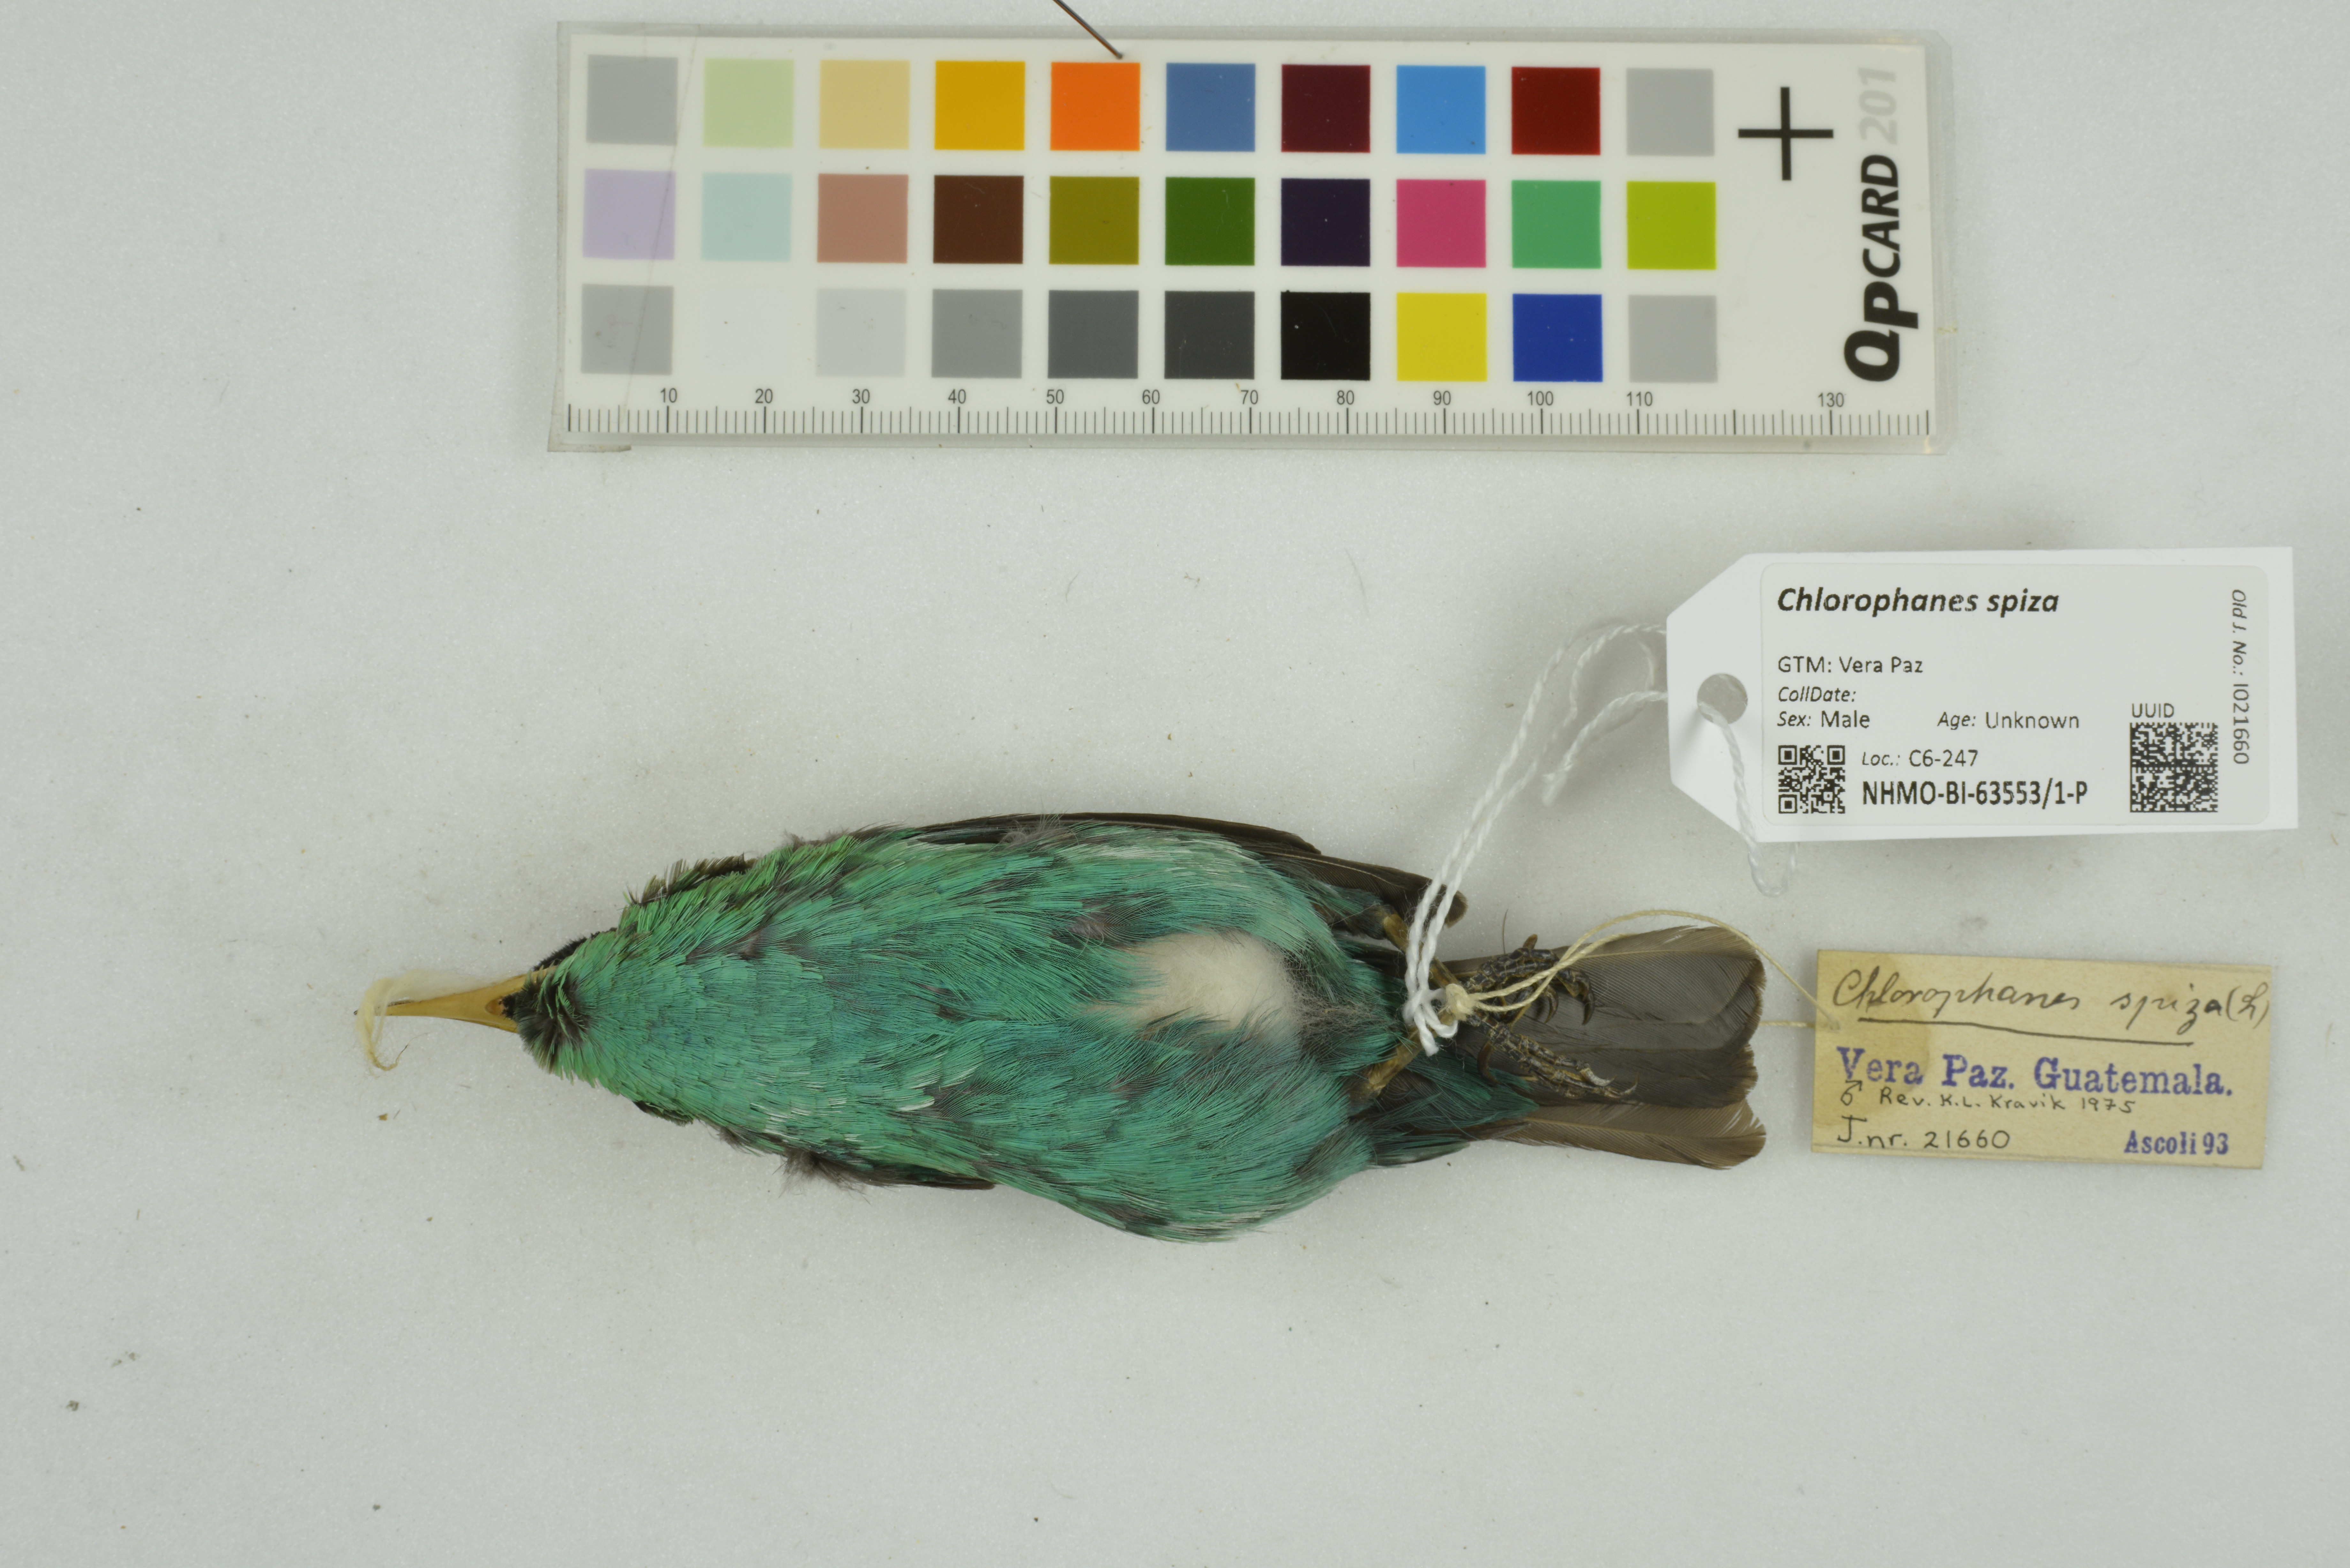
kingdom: Animalia
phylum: Chordata
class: Aves
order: Passeriformes
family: Thraupidae
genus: Chlorophanes
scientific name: Chlorophanes spiza
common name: Green honeycreeper
